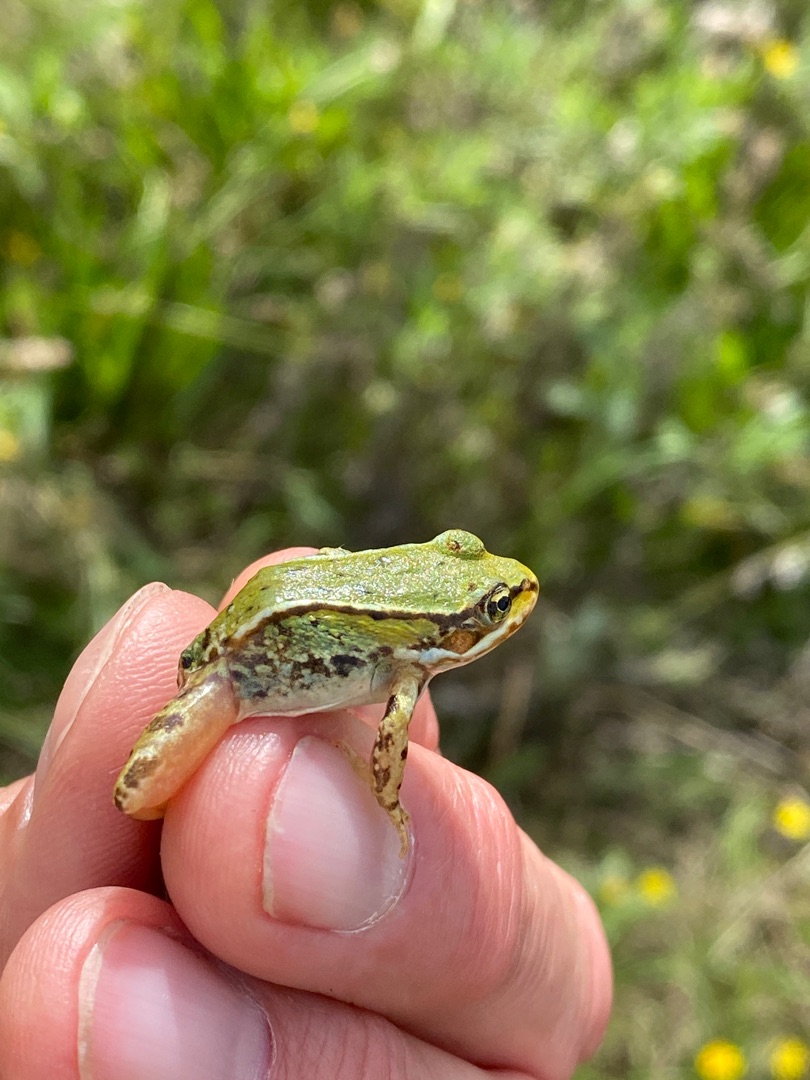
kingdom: Animalia
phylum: Chordata
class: Amphibia
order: Anura
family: Ranidae
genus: Pelophylax
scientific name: Pelophylax lessonae
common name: Grøn frø
